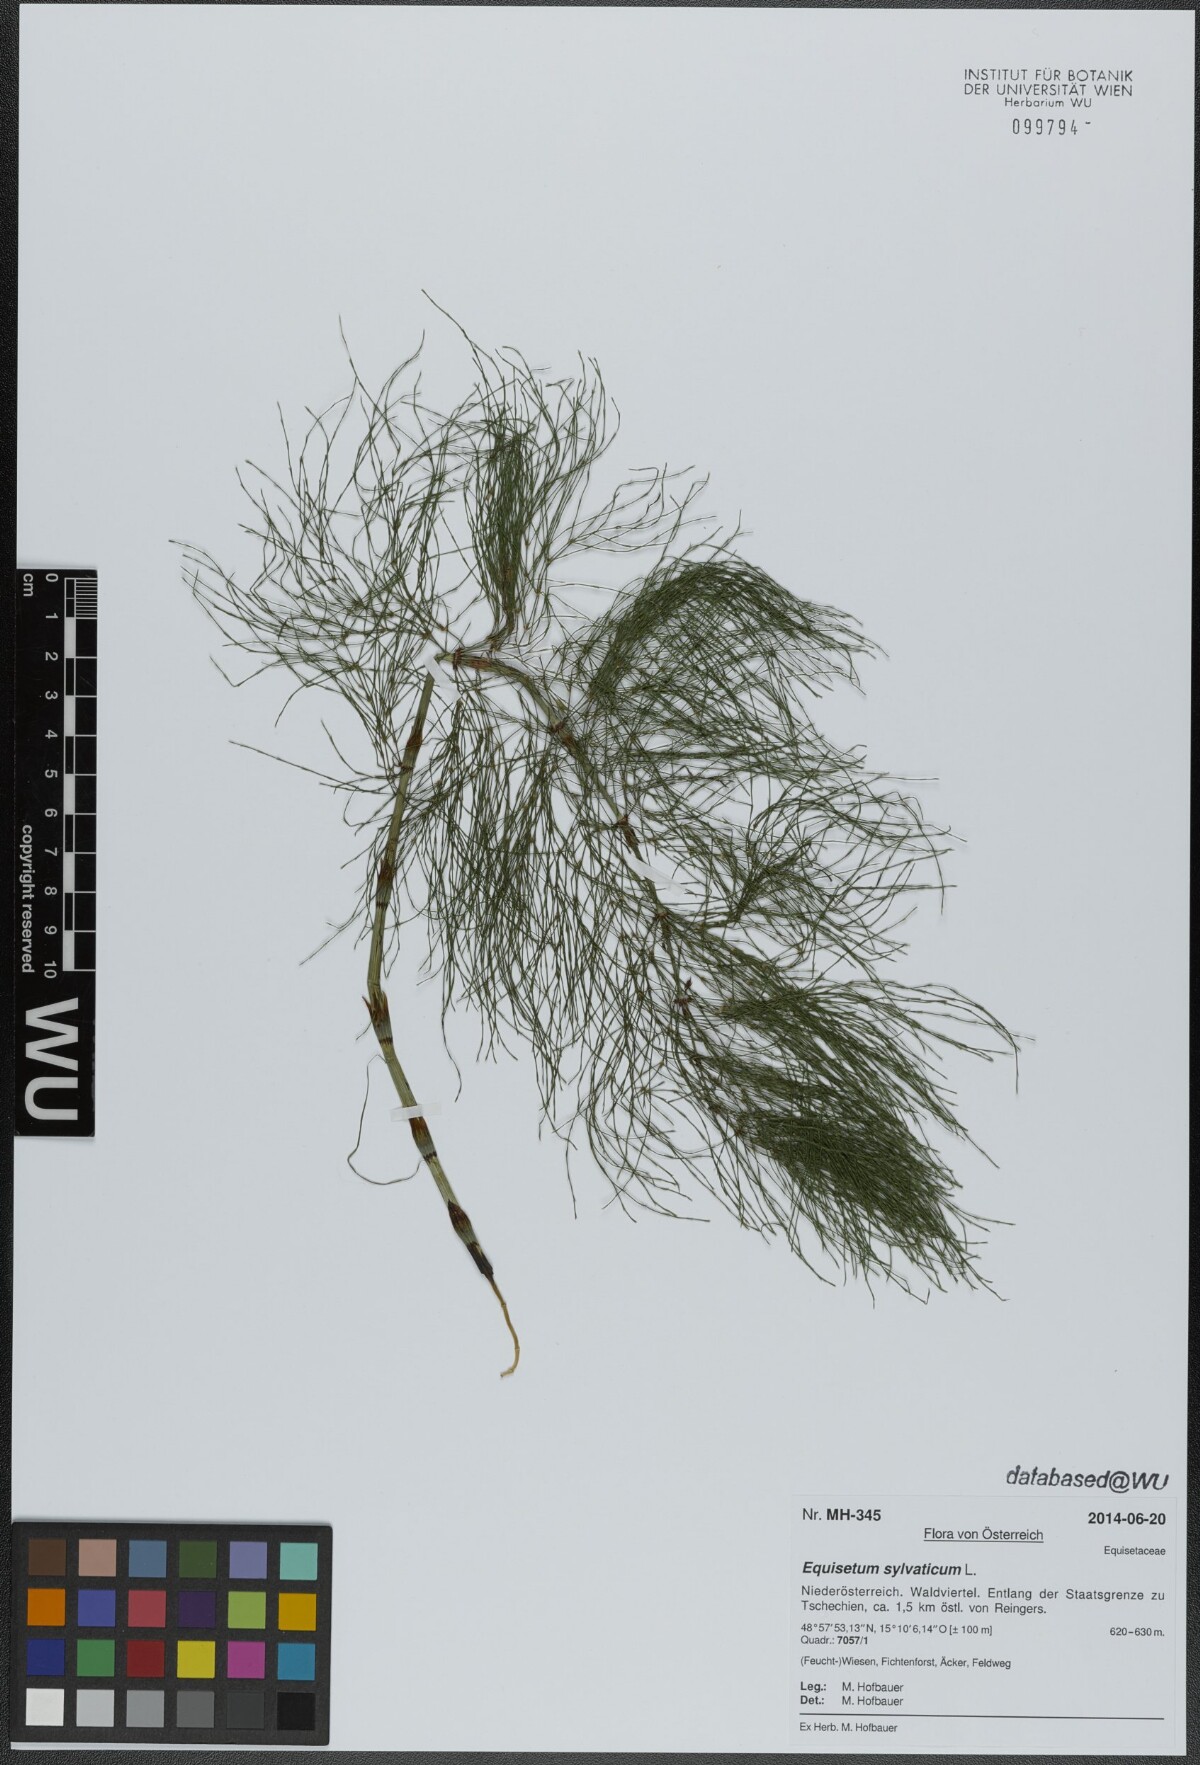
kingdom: Plantae
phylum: Tracheophyta
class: Polypodiopsida
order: Equisetales
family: Equisetaceae
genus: Equisetum
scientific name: Equisetum sylvaticum
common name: Wood horsetail
